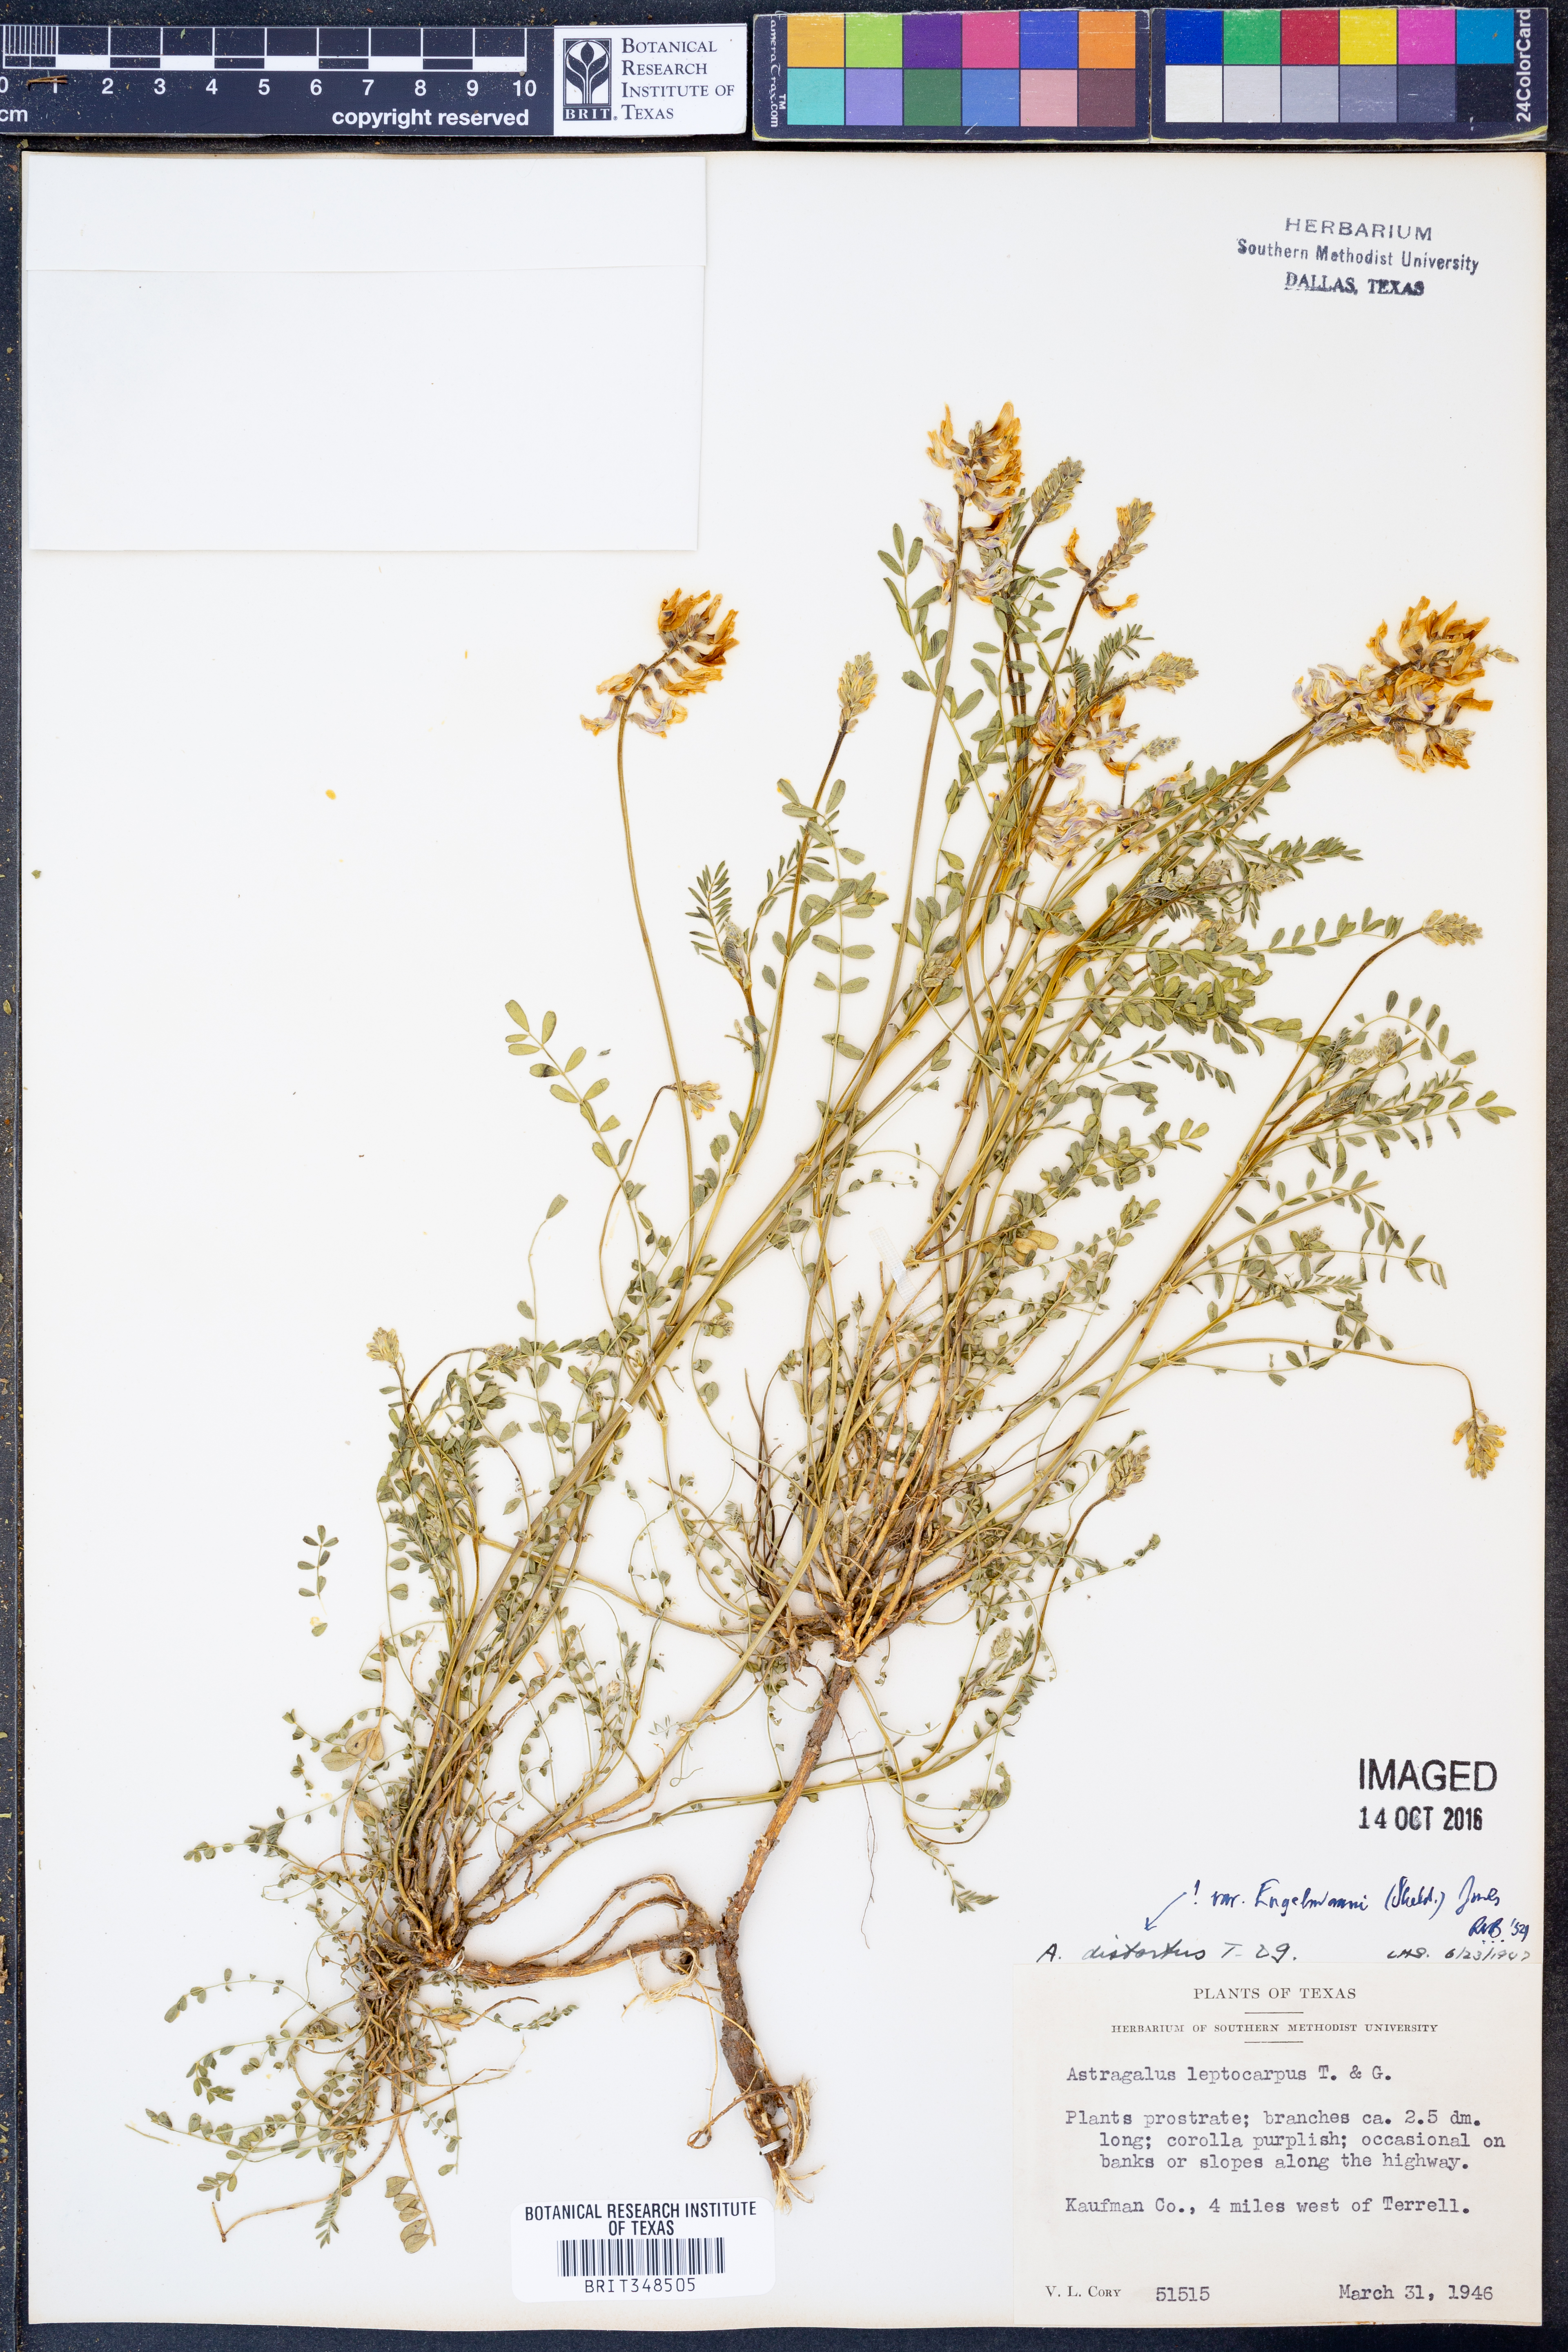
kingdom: Plantae
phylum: Tracheophyta
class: Magnoliopsida
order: Fabales
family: Fabaceae
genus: Astragalus
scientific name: Astragalus distortus
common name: Ozark milk-vetch
